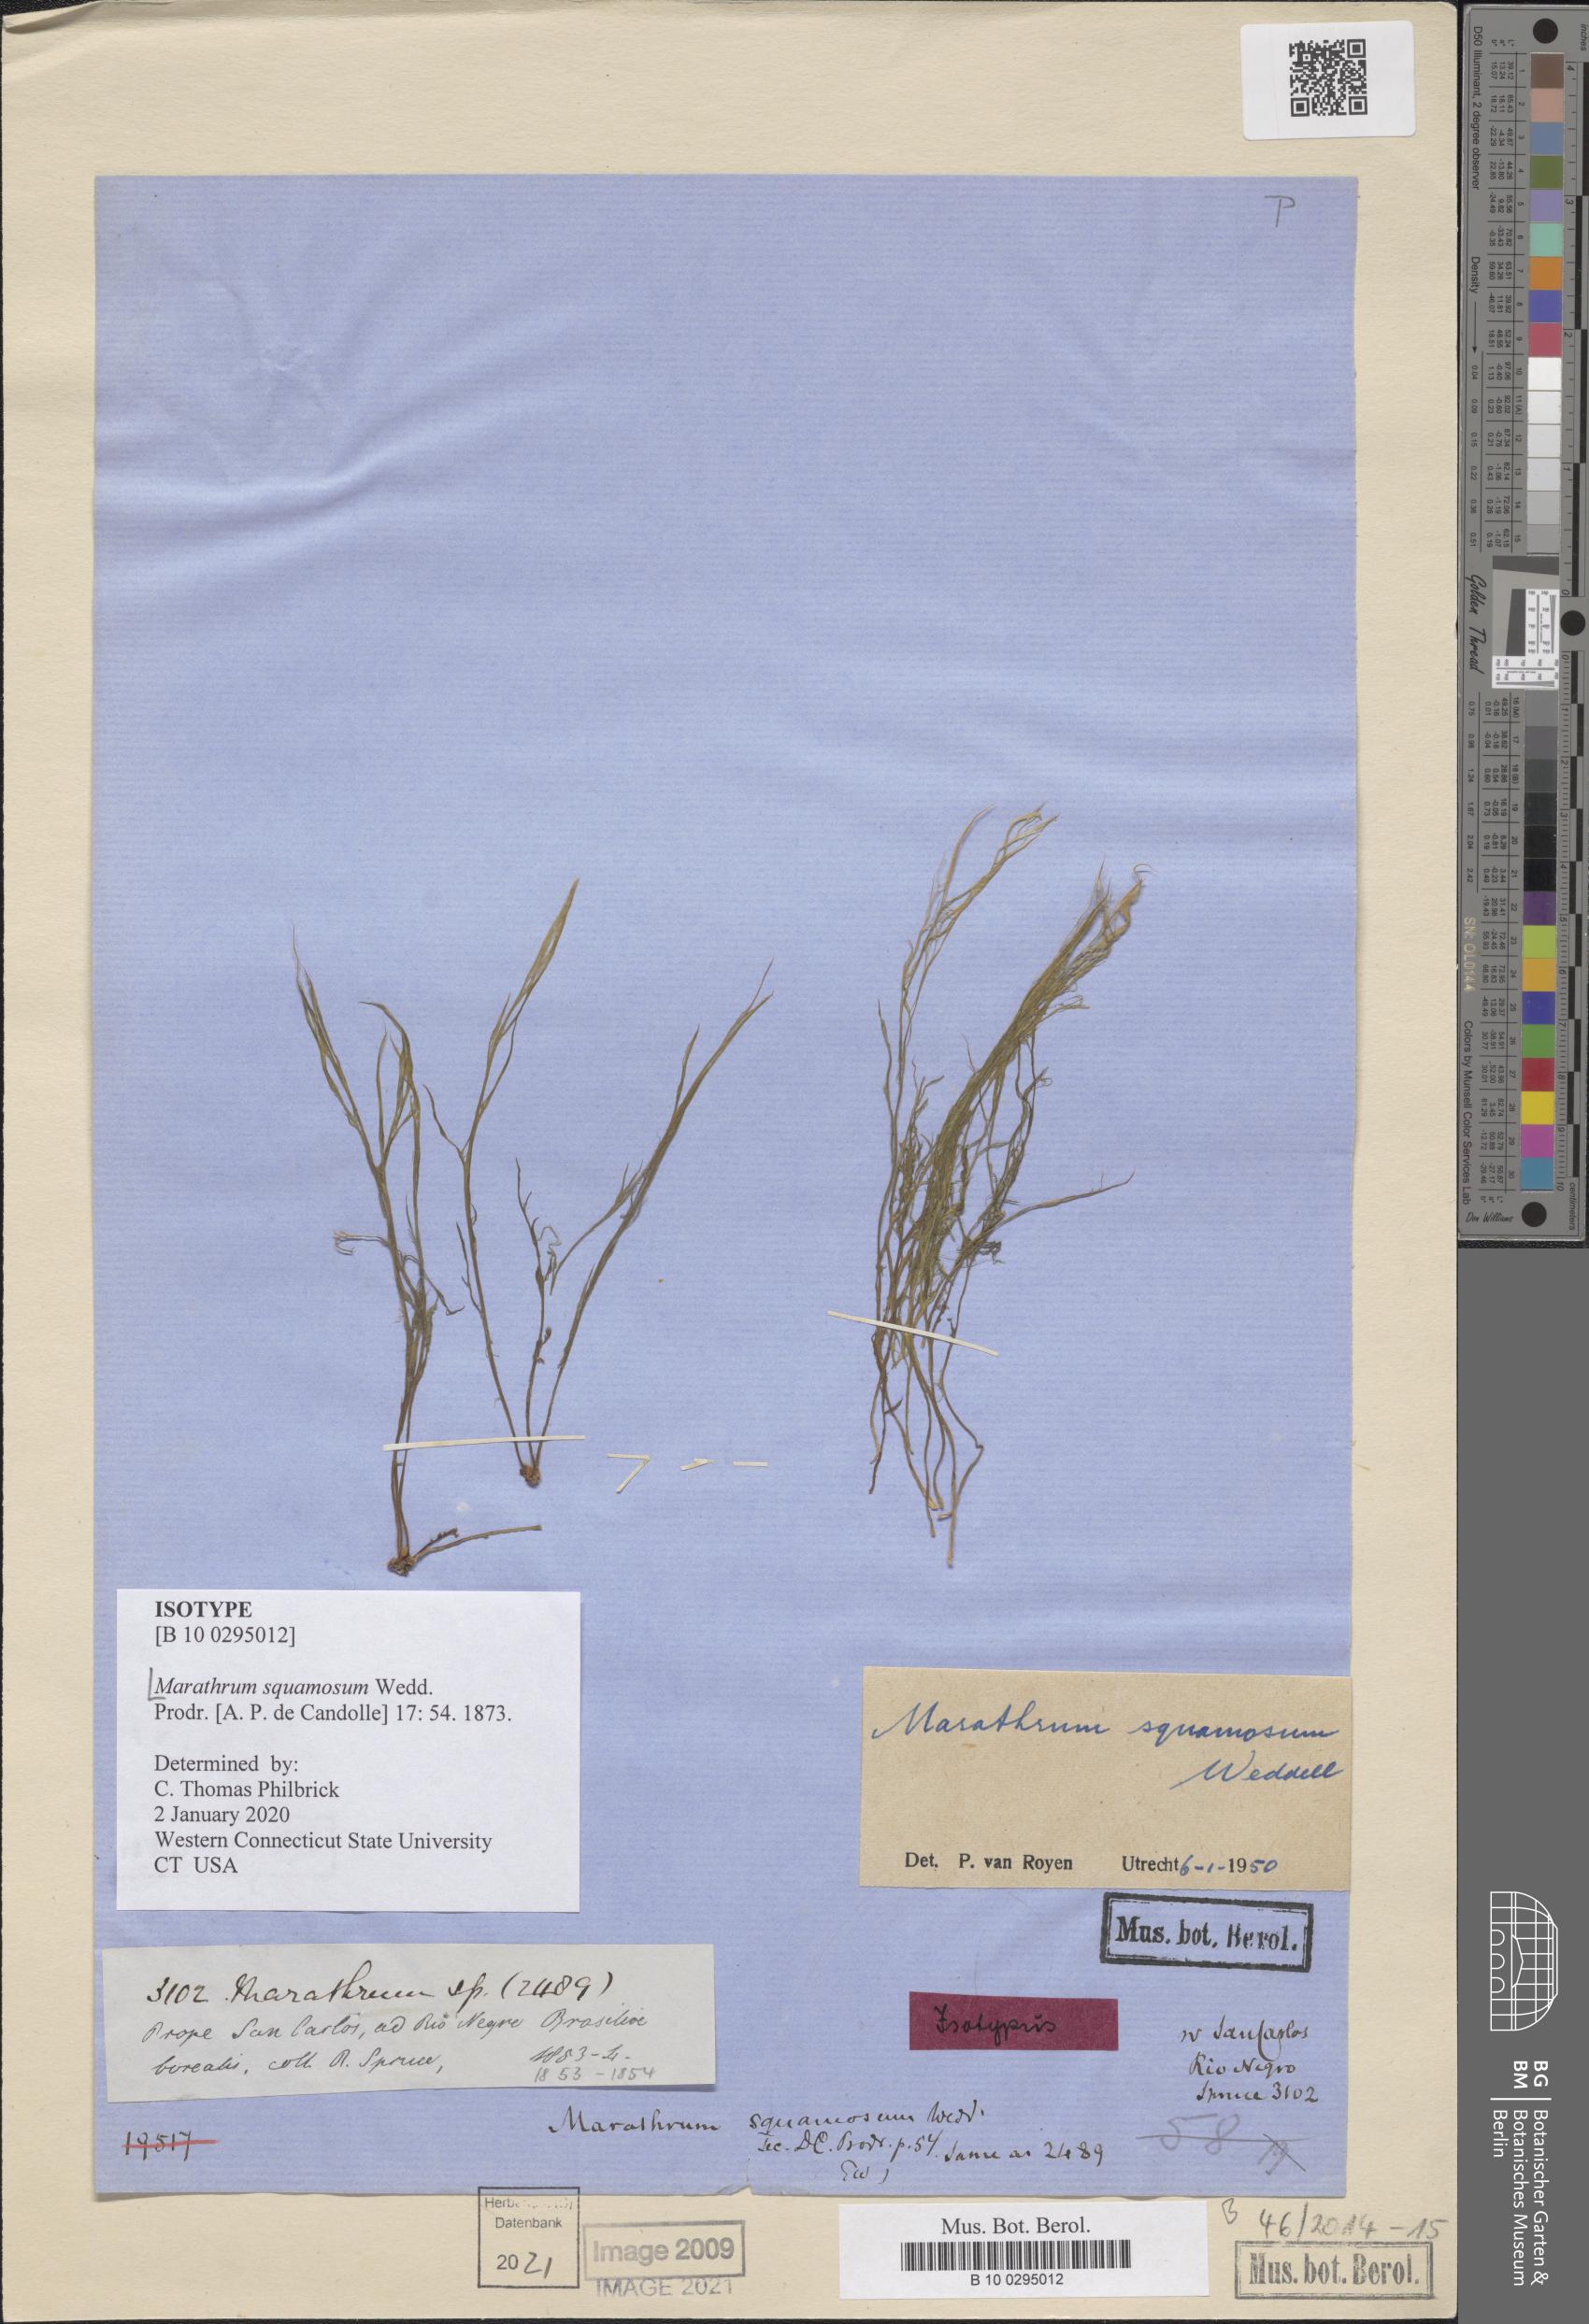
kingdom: Plantae
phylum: Tracheophyta
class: Magnoliopsida
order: Malpighiales
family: Podostemaceae
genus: Rhyncholacis
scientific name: Rhyncholacis squamosa
